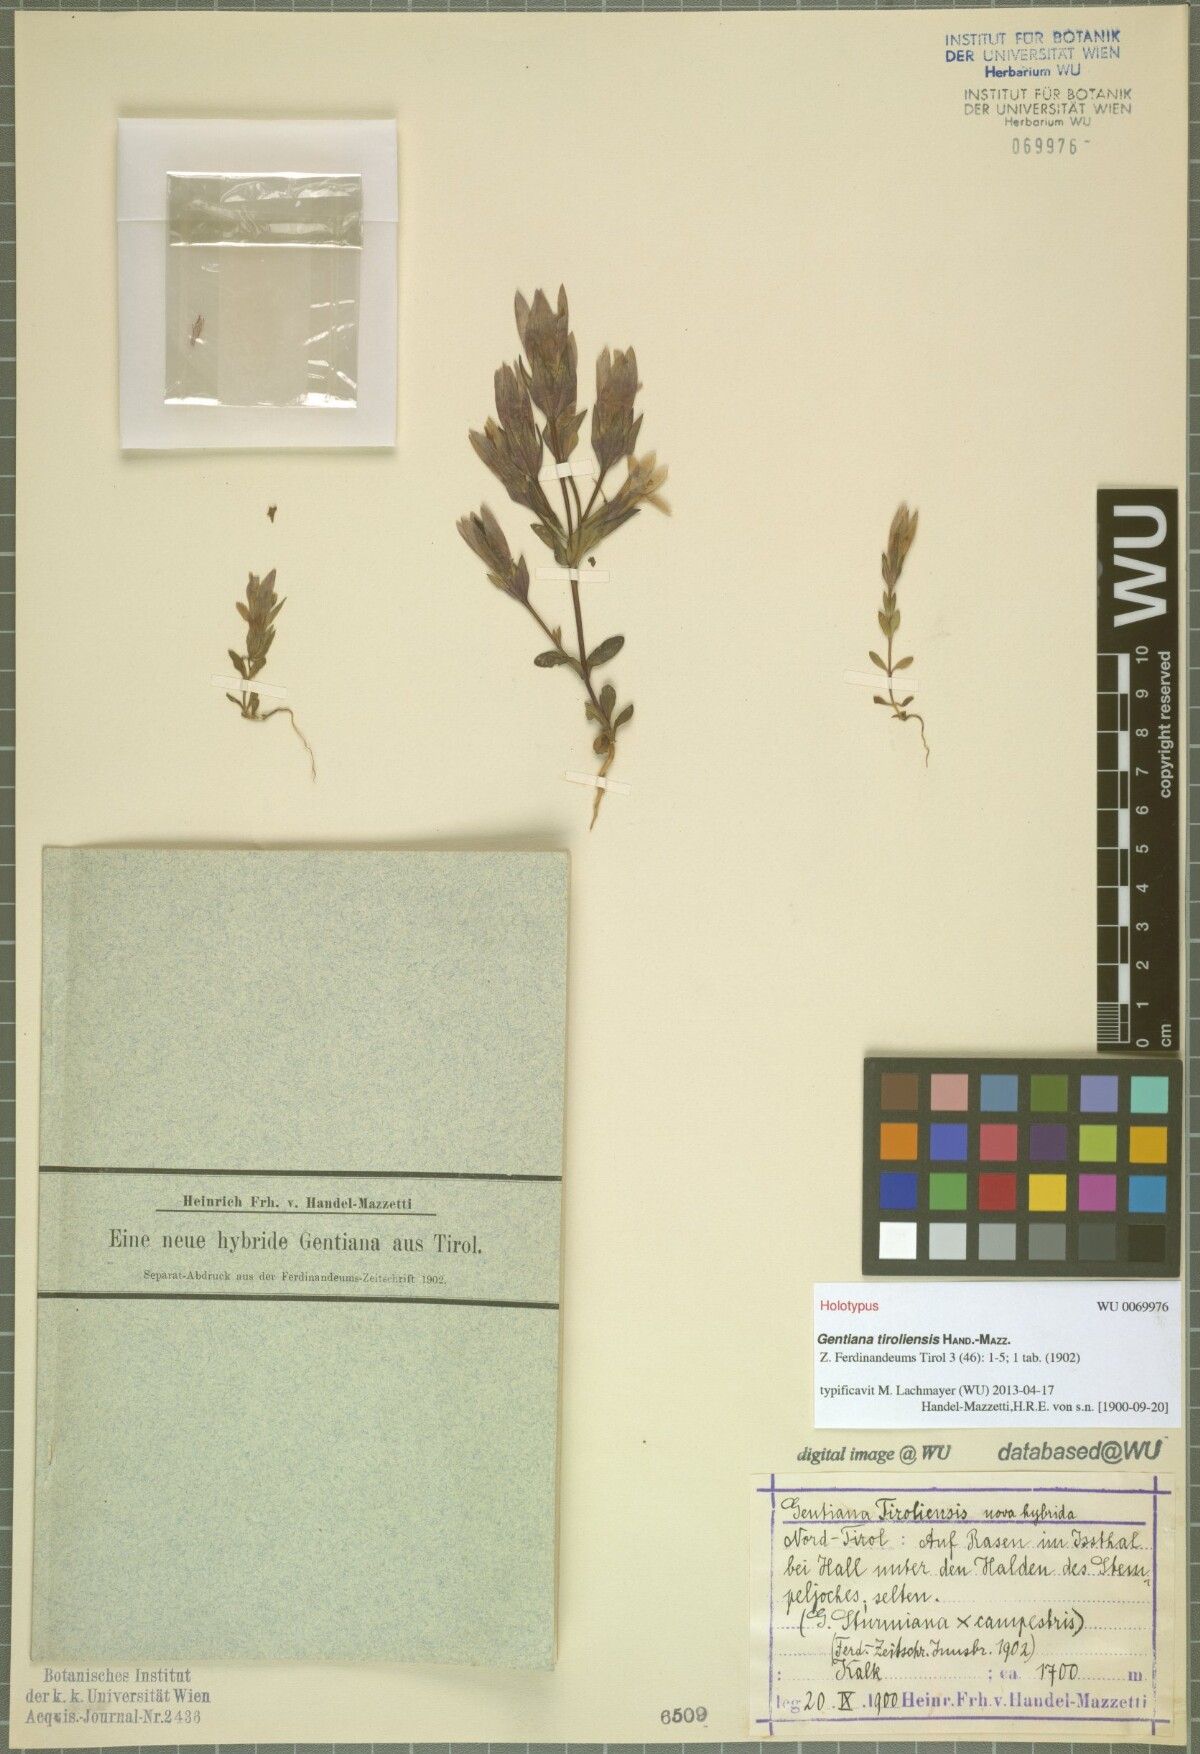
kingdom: Plantae
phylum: Tracheophyta
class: Magnoliopsida
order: Gentianales
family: Gentianaceae
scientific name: Gentianaceae
